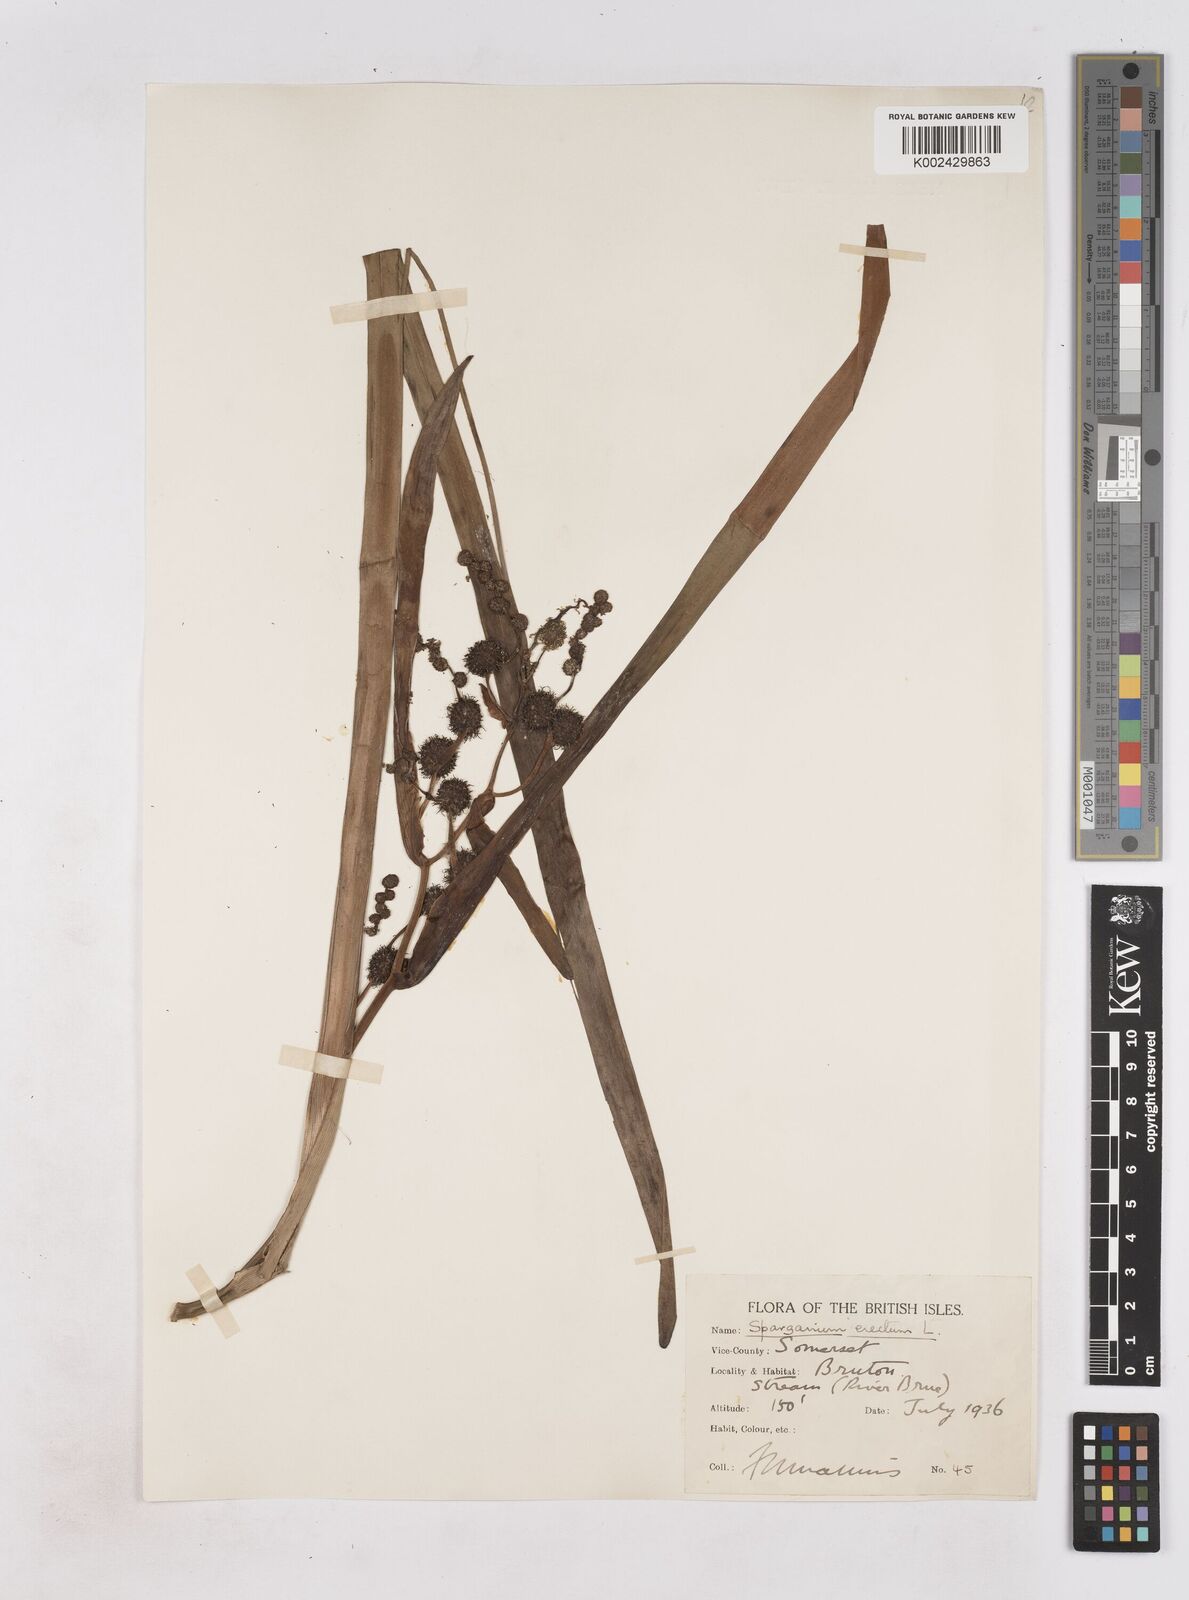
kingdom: Plantae
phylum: Tracheophyta
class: Liliopsida
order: Poales
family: Typhaceae
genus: Sparganium
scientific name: Sparganium erectum
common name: Branched bur-reed
